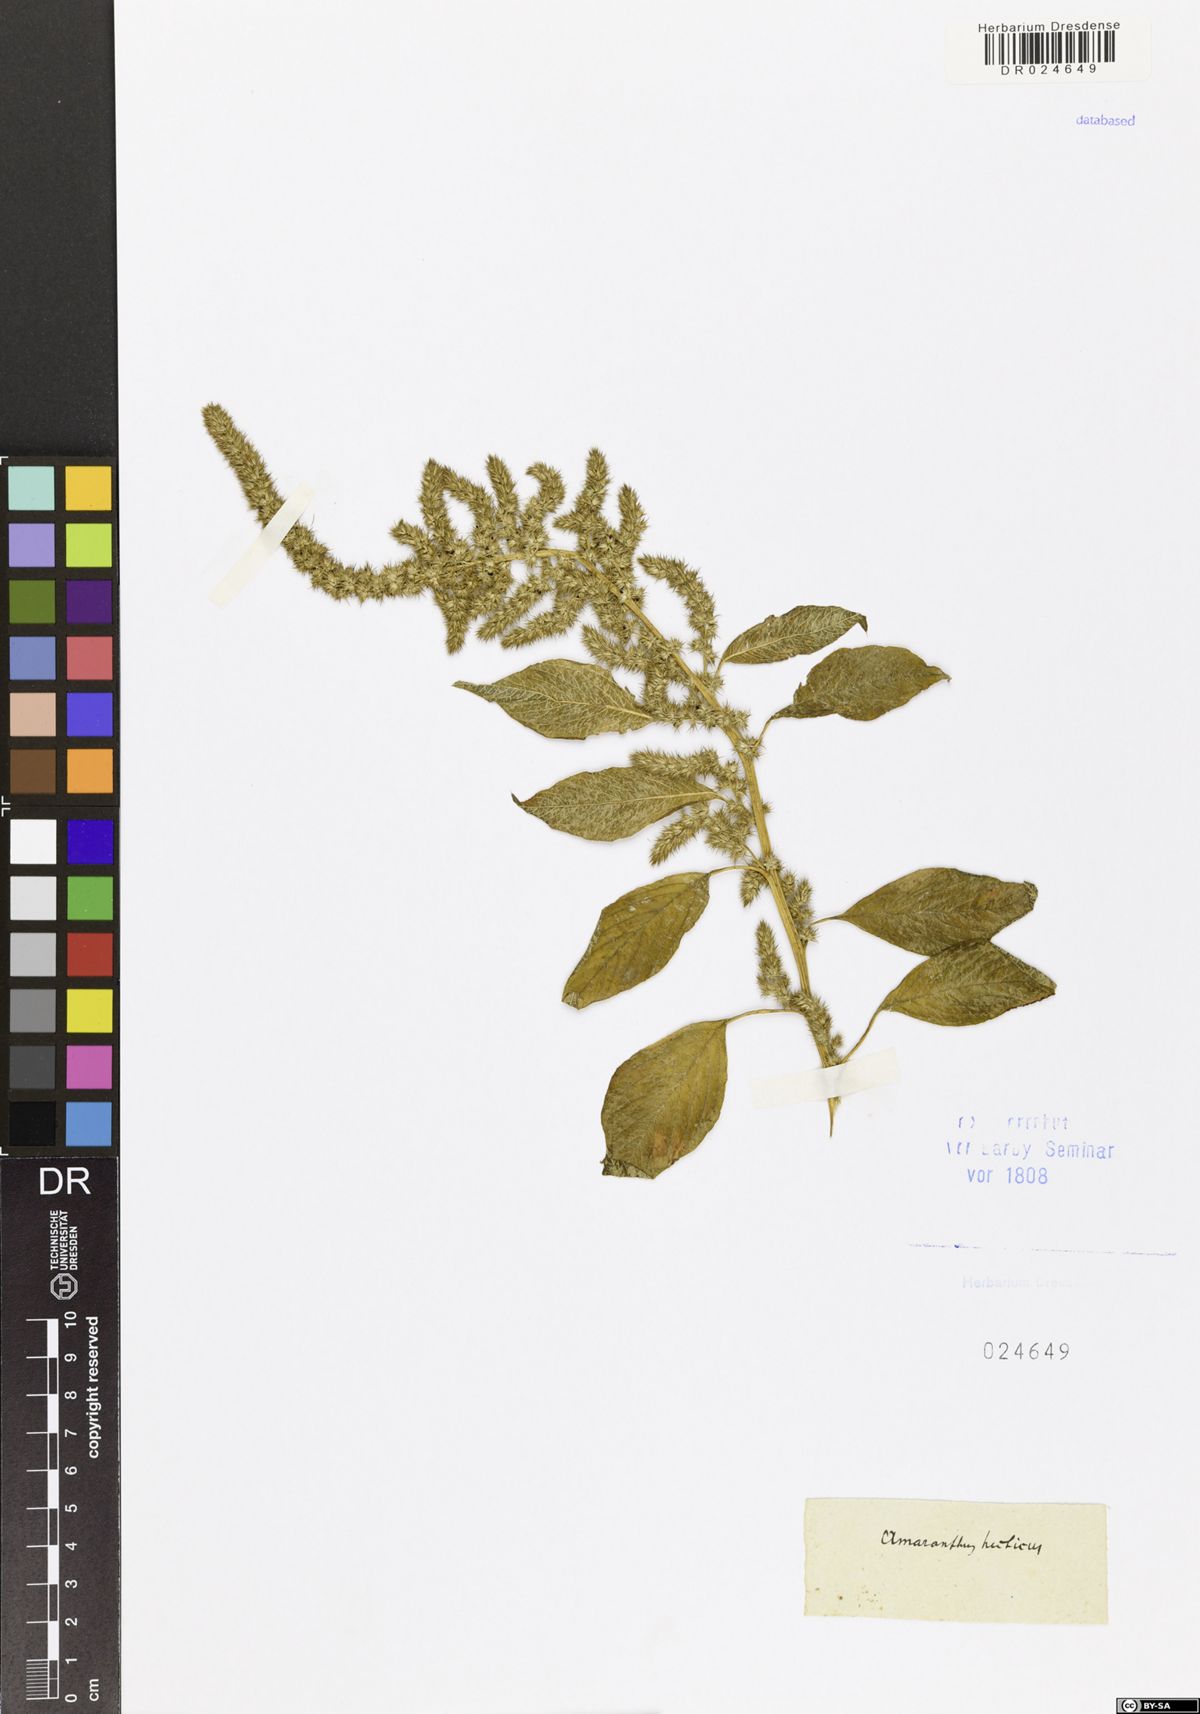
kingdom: Plantae
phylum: Tracheophyta
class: Magnoliopsida
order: Caryophyllales
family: Amaranthaceae
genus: Amaranthus
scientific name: Amaranthus hybridus
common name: Green amaranth
